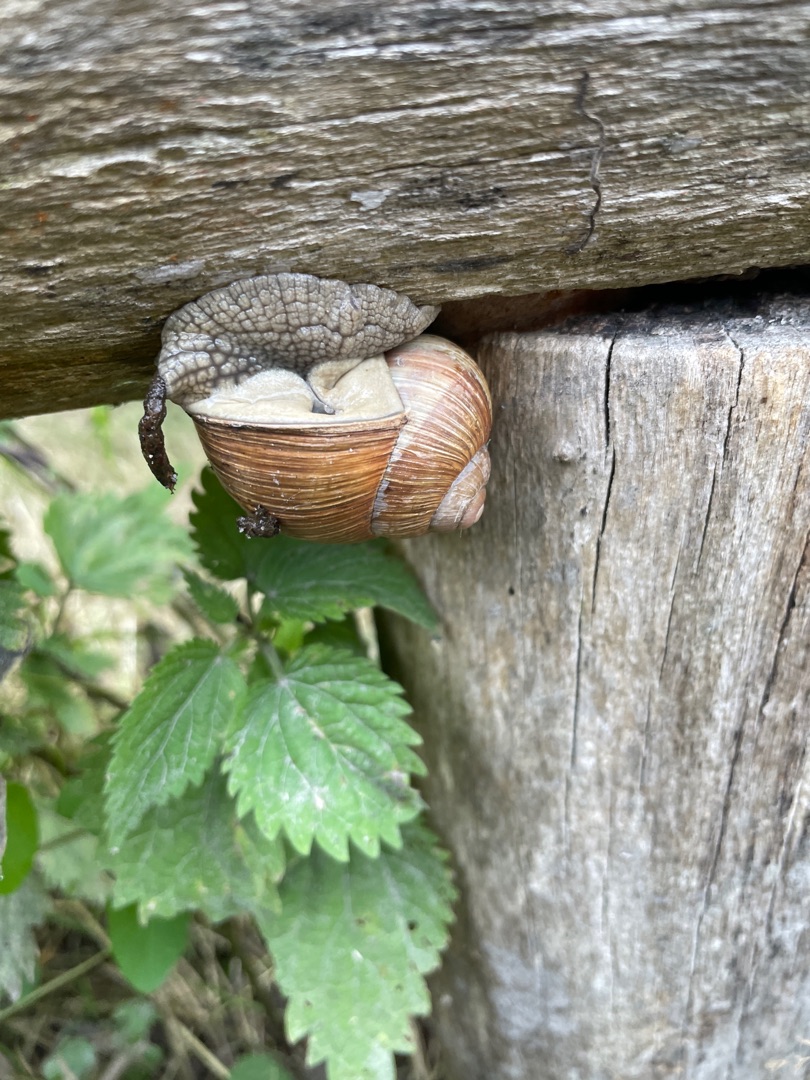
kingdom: Animalia
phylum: Mollusca
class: Gastropoda
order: Stylommatophora
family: Helicidae
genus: Helix
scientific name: Helix pomatia
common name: Vinbjergsnegl
